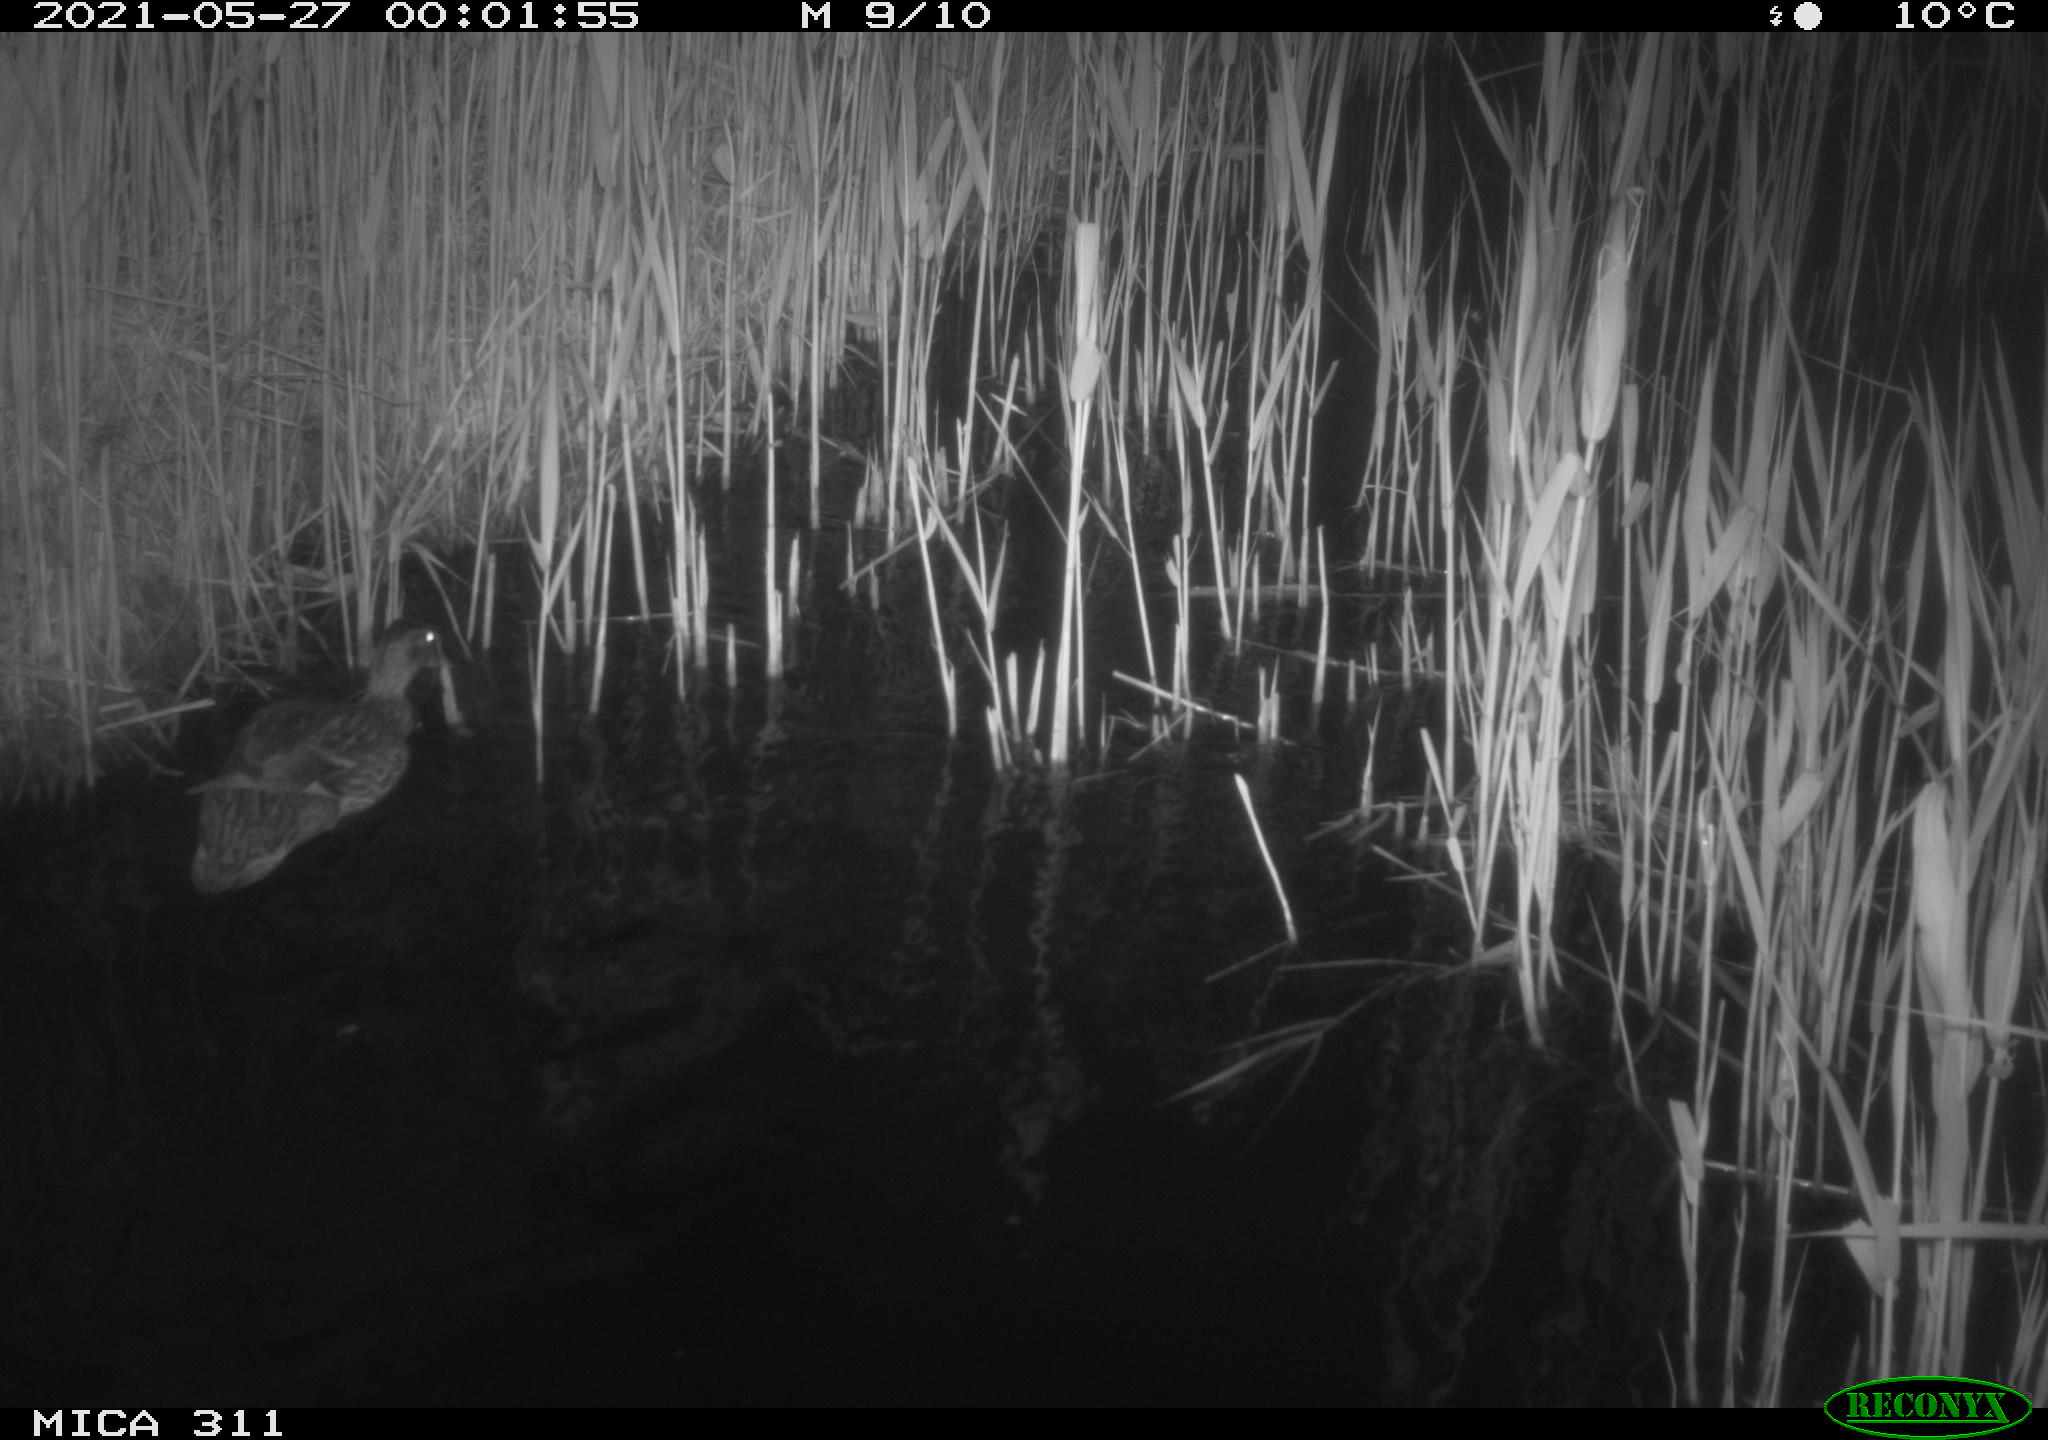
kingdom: Animalia
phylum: Chordata
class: Aves
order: Anseriformes
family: Anatidae
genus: Anas
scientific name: Anas platyrhynchos
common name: Mallard
